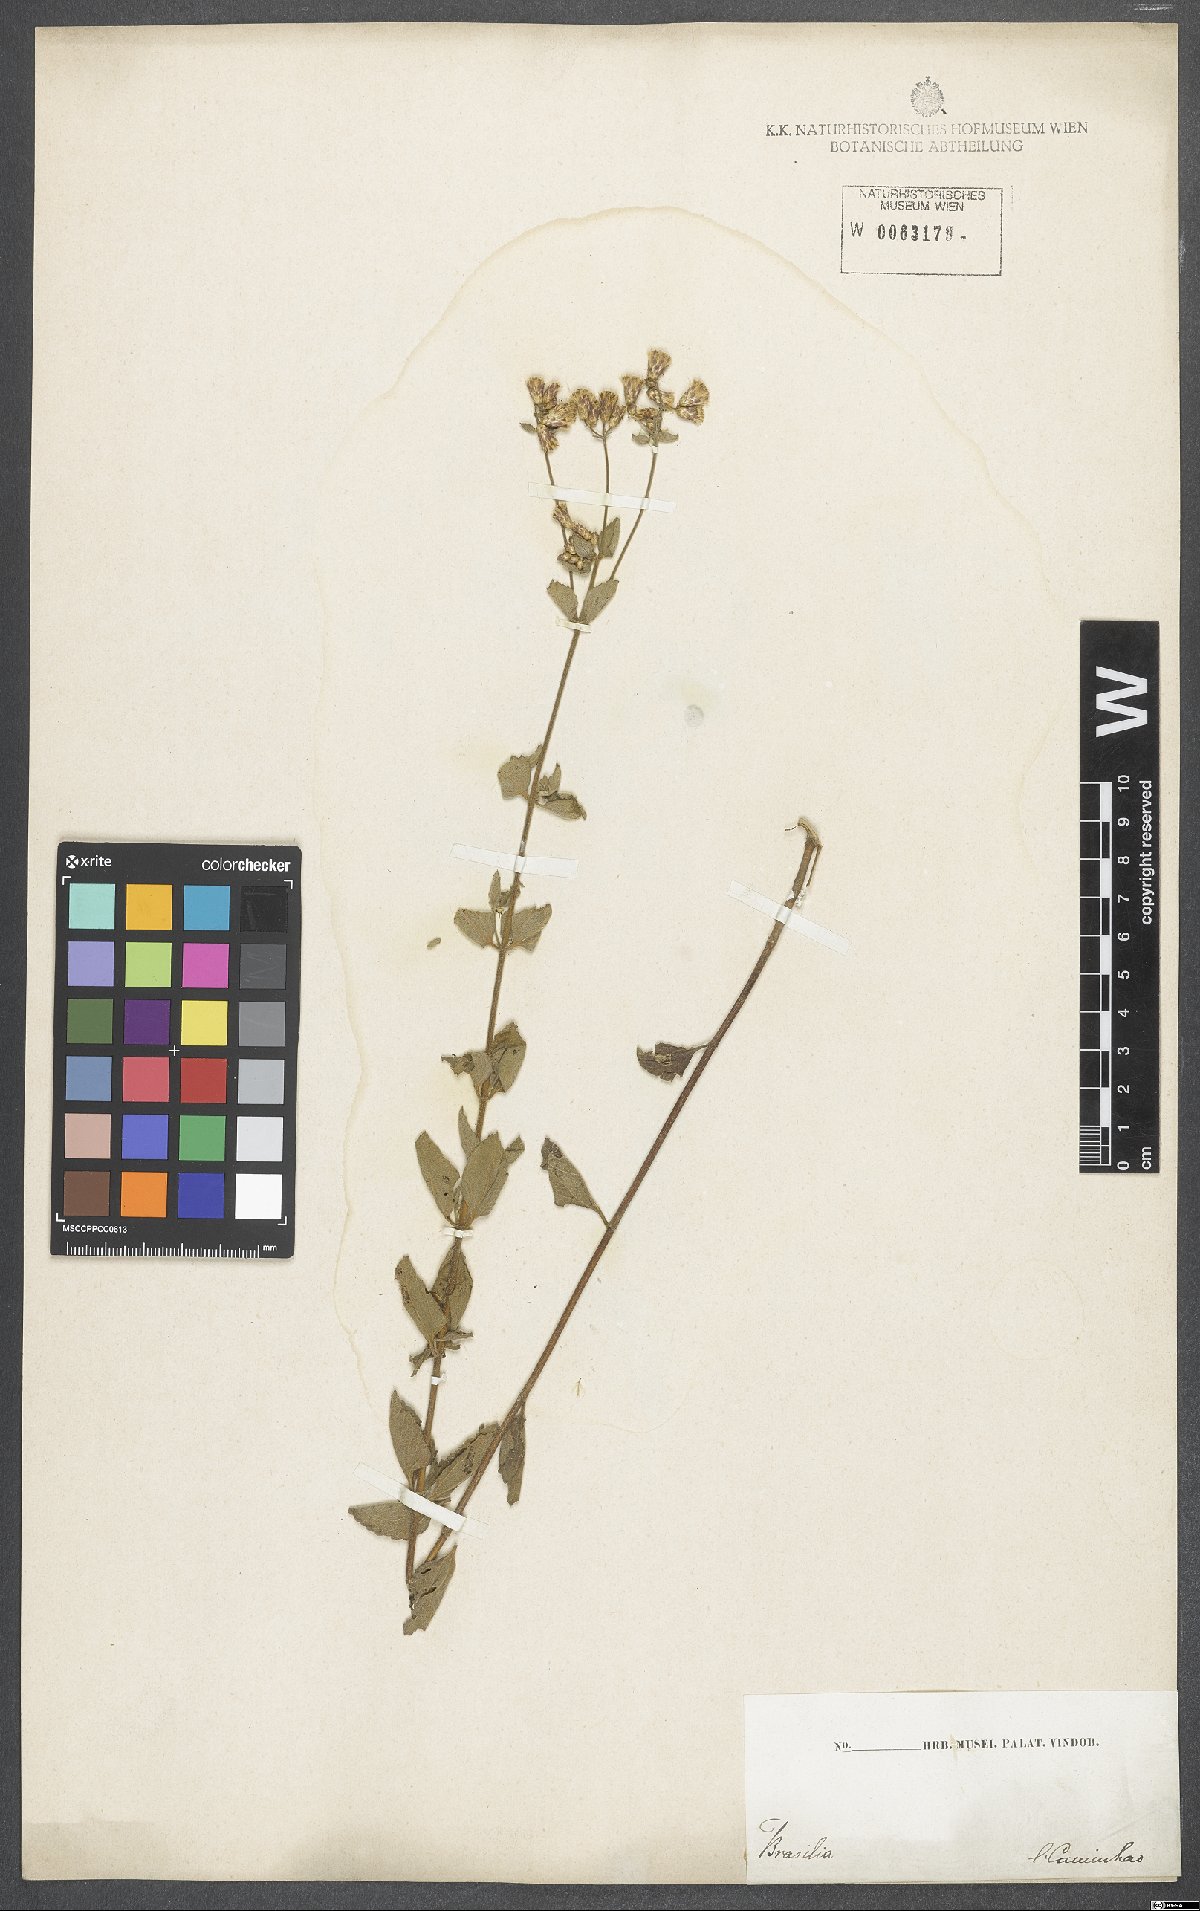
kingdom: Plantae
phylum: Tracheophyta
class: Magnoliopsida
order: Asterales
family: Asteraceae
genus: Eupatorium
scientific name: Eupatorium
